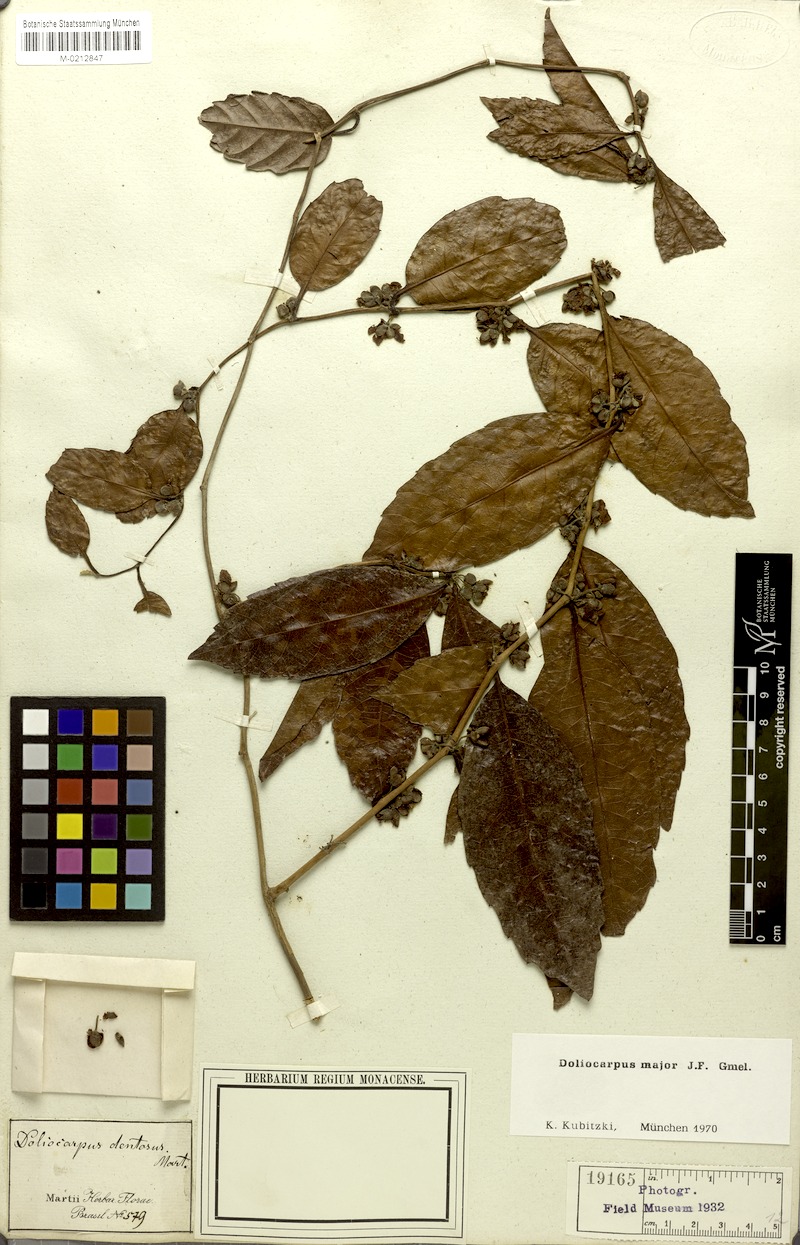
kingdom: Plantae
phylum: Tracheophyta
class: Magnoliopsida
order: Dilleniales
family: Dilleniaceae
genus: Doliocarpus
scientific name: Doliocarpus major
